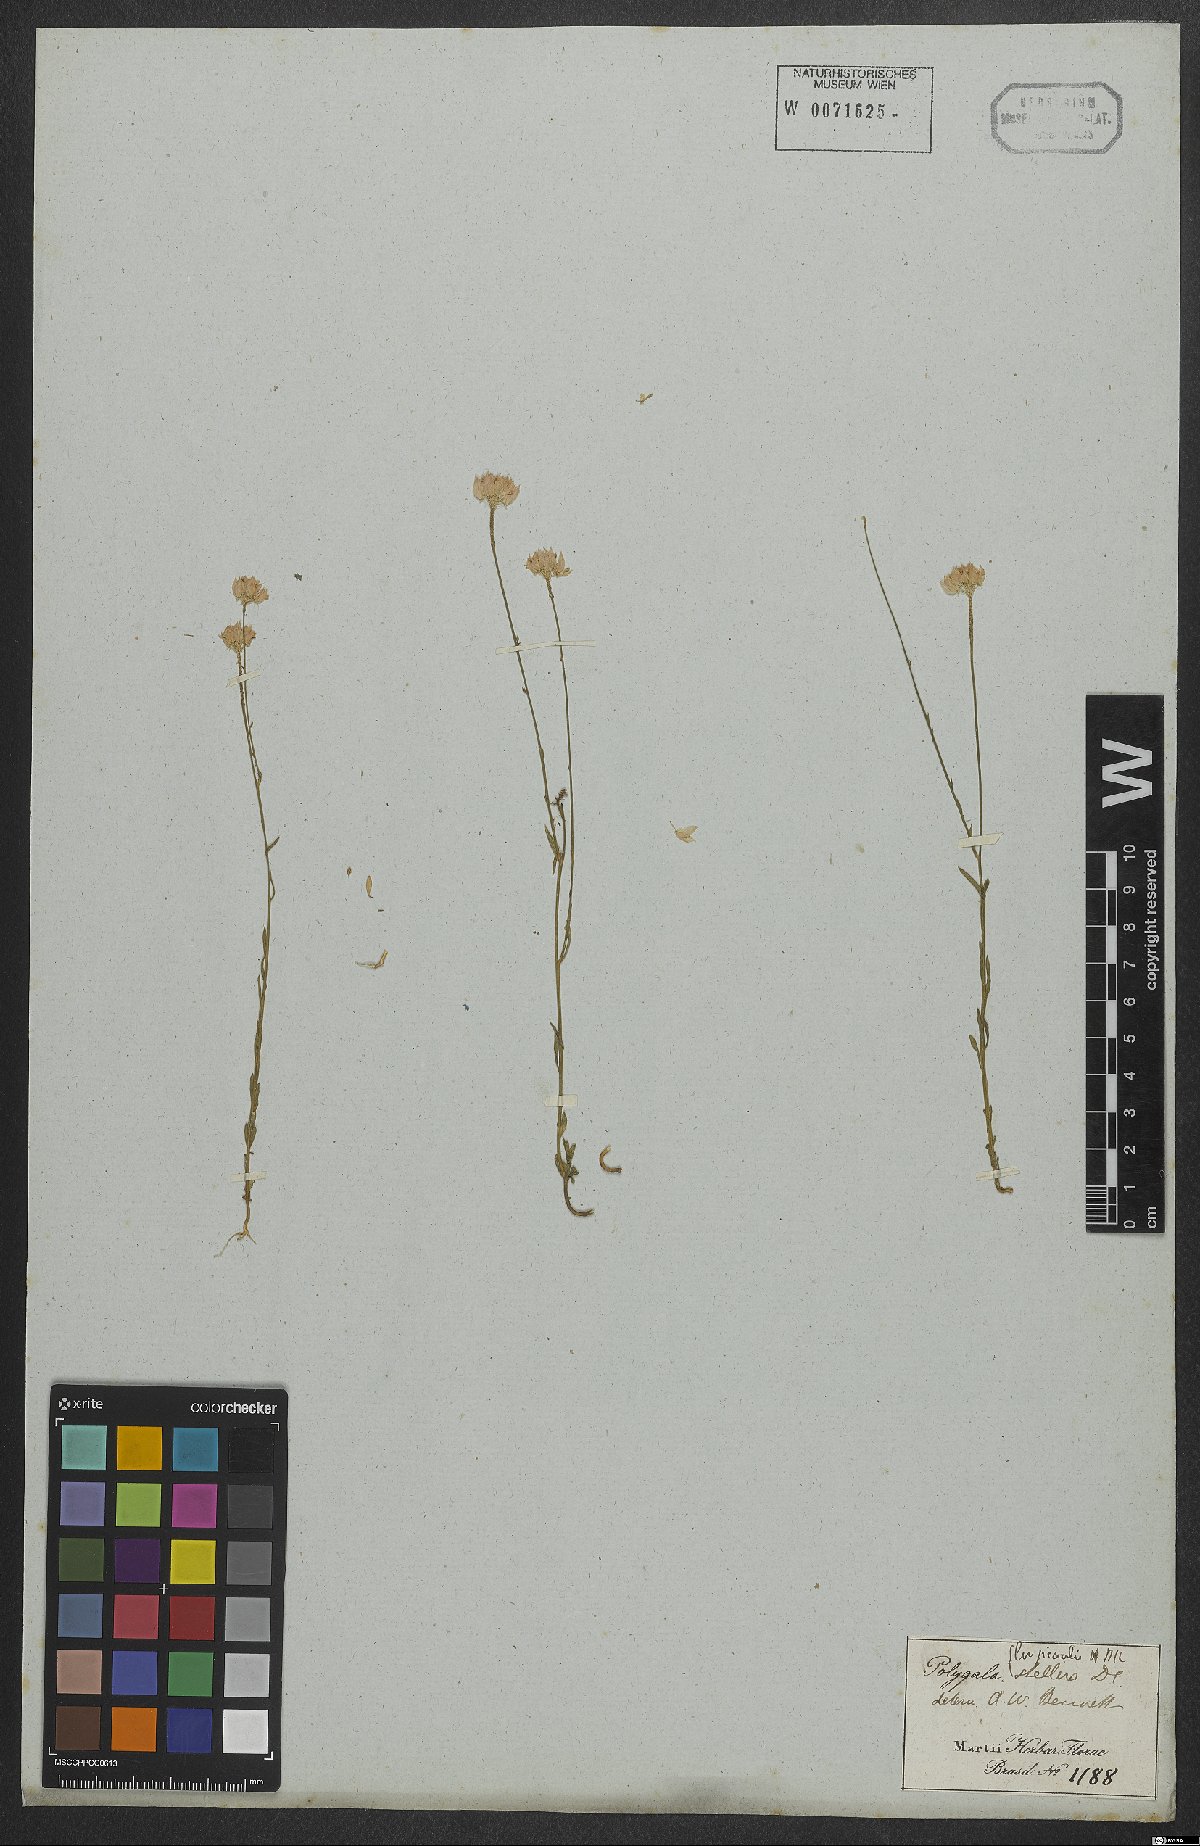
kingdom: Plantae
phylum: Tracheophyta
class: Magnoliopsida
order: Fabales
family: Polygalaceae
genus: Polygala
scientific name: Polygala longicaulis
